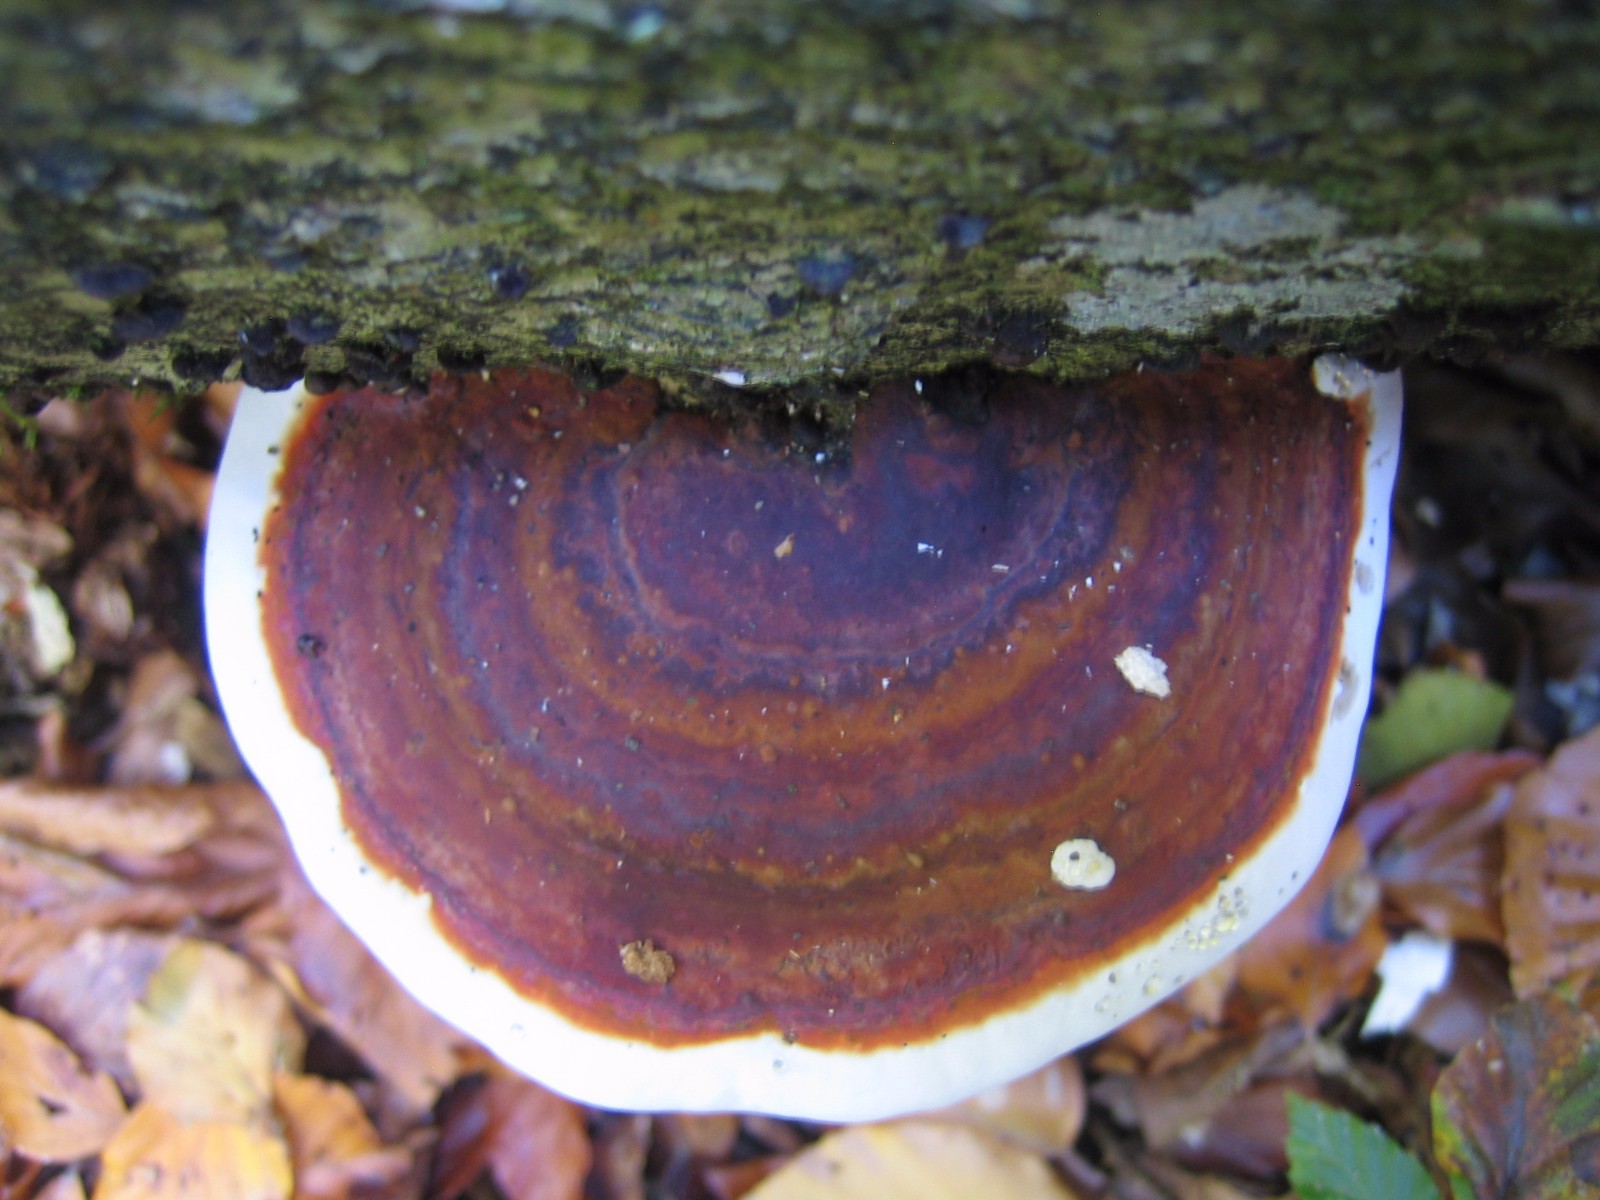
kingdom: Fungi
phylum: Basidiomycota
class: Agaricomycetes
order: Polyporales
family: Polyporaceae
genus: Fomes
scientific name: Fomes fomentarius
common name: tøndersvamp
